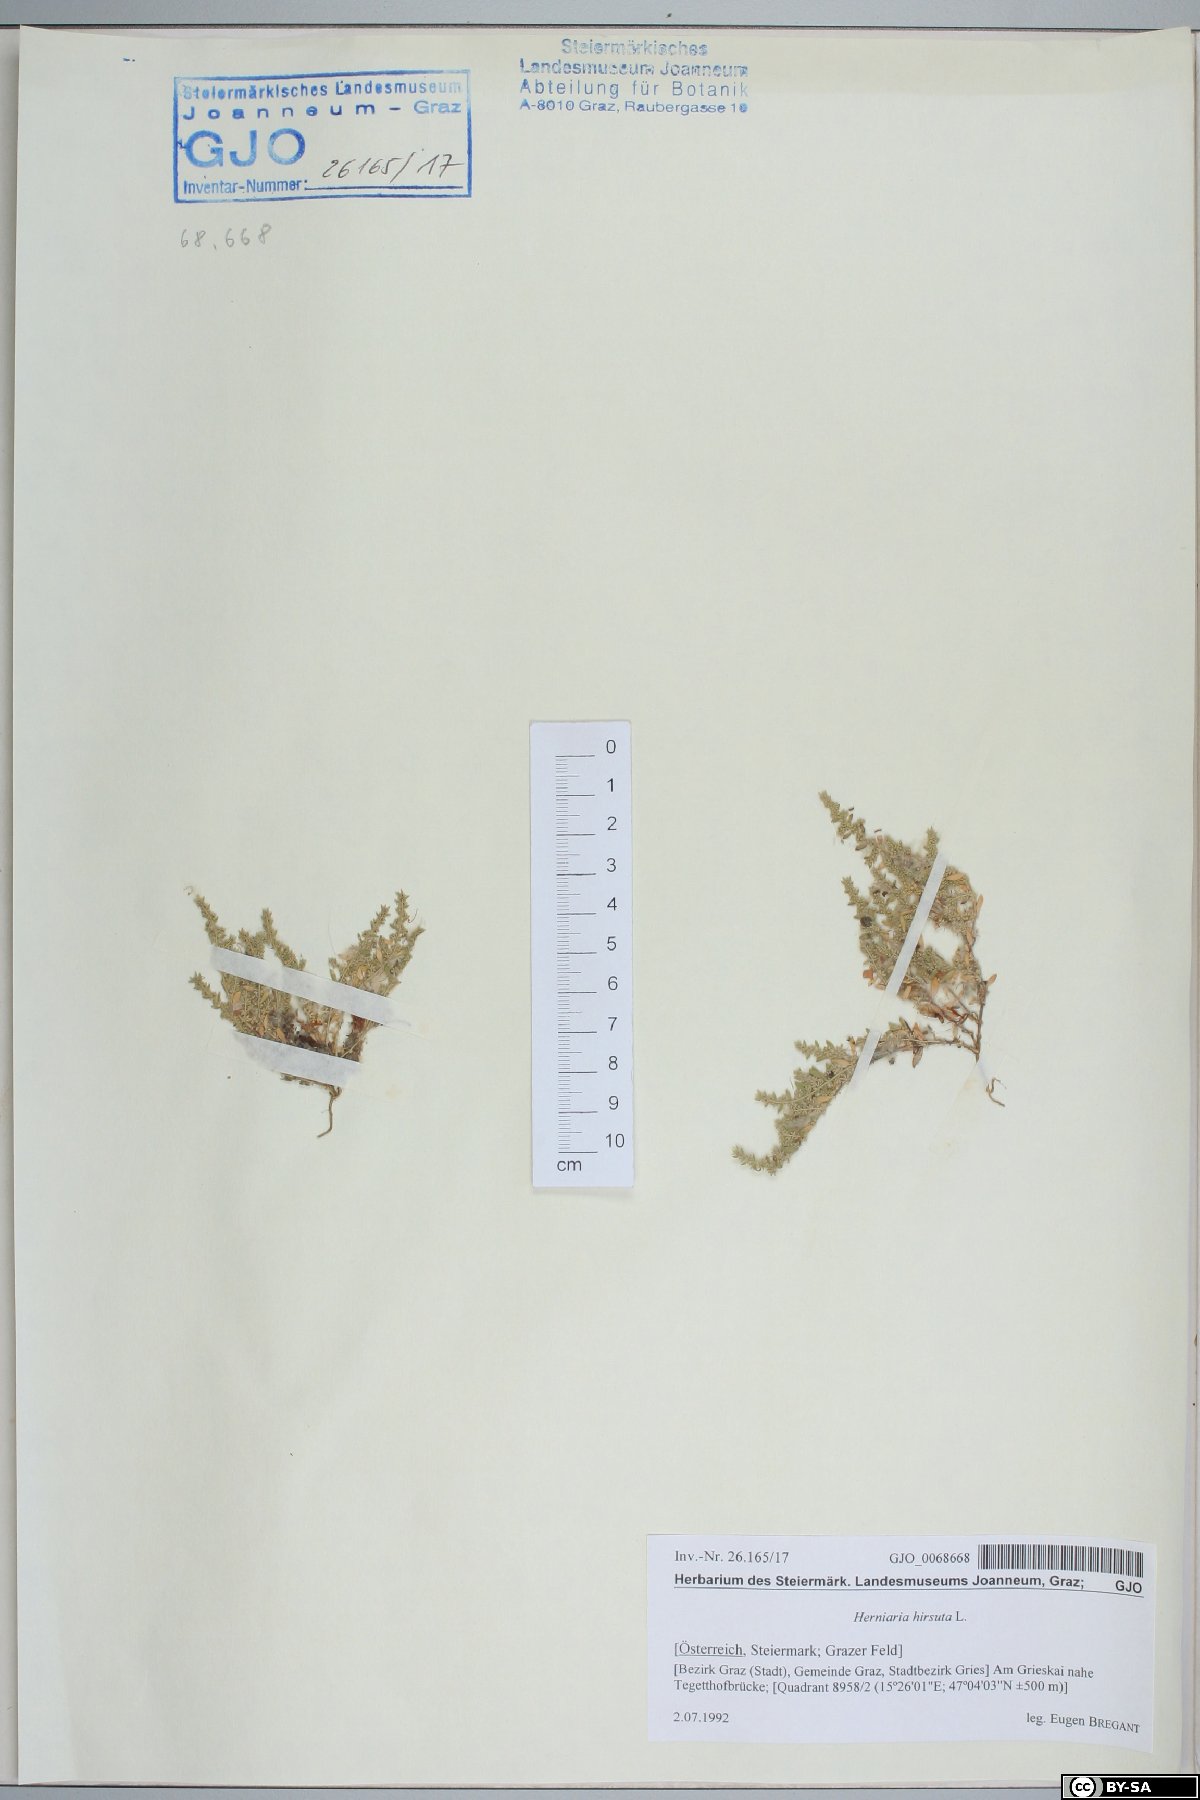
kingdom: Plantae
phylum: Tracheophyta
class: Magnoliopsida
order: Caryophyllales
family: Caryophyllaceae
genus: Herniaria
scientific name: Herniaria hirsuta
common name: Hairy rupturewort
